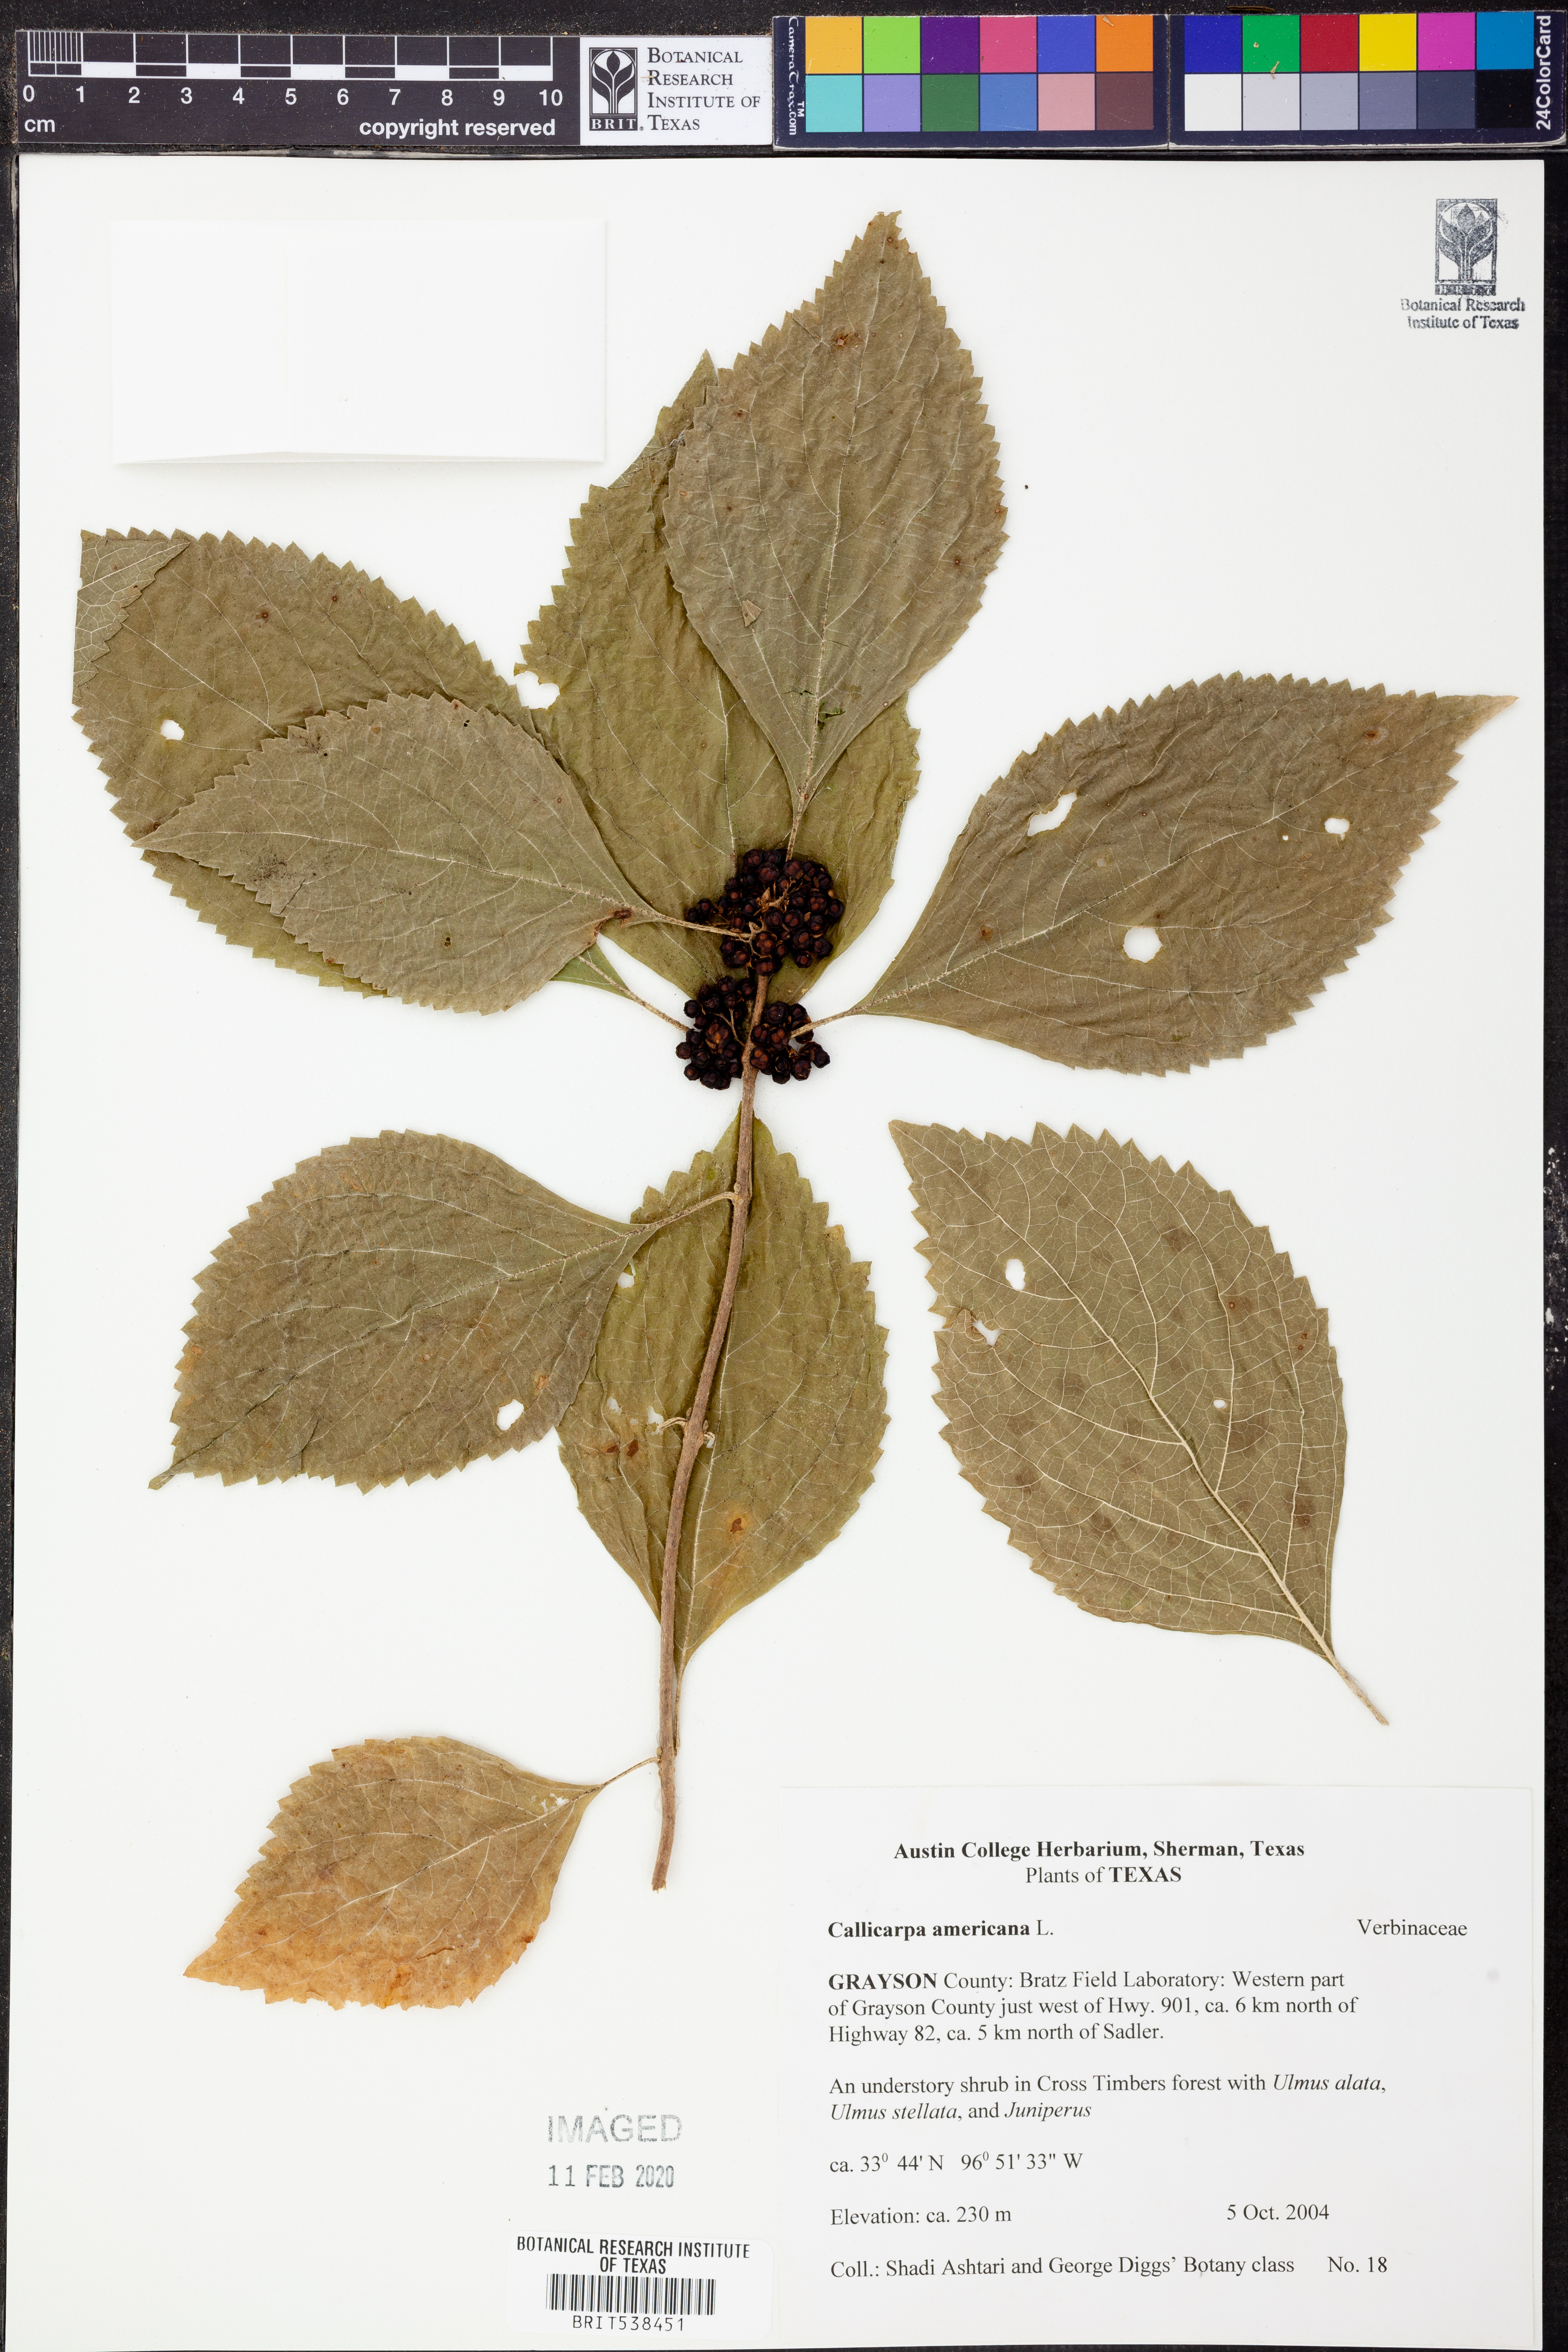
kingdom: Plantae
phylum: Tracheophyta
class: Magnoliopsida
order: Lamiales
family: Lamiaceae
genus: Callicarpa
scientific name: Callicarpa americana
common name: American beautyberry
